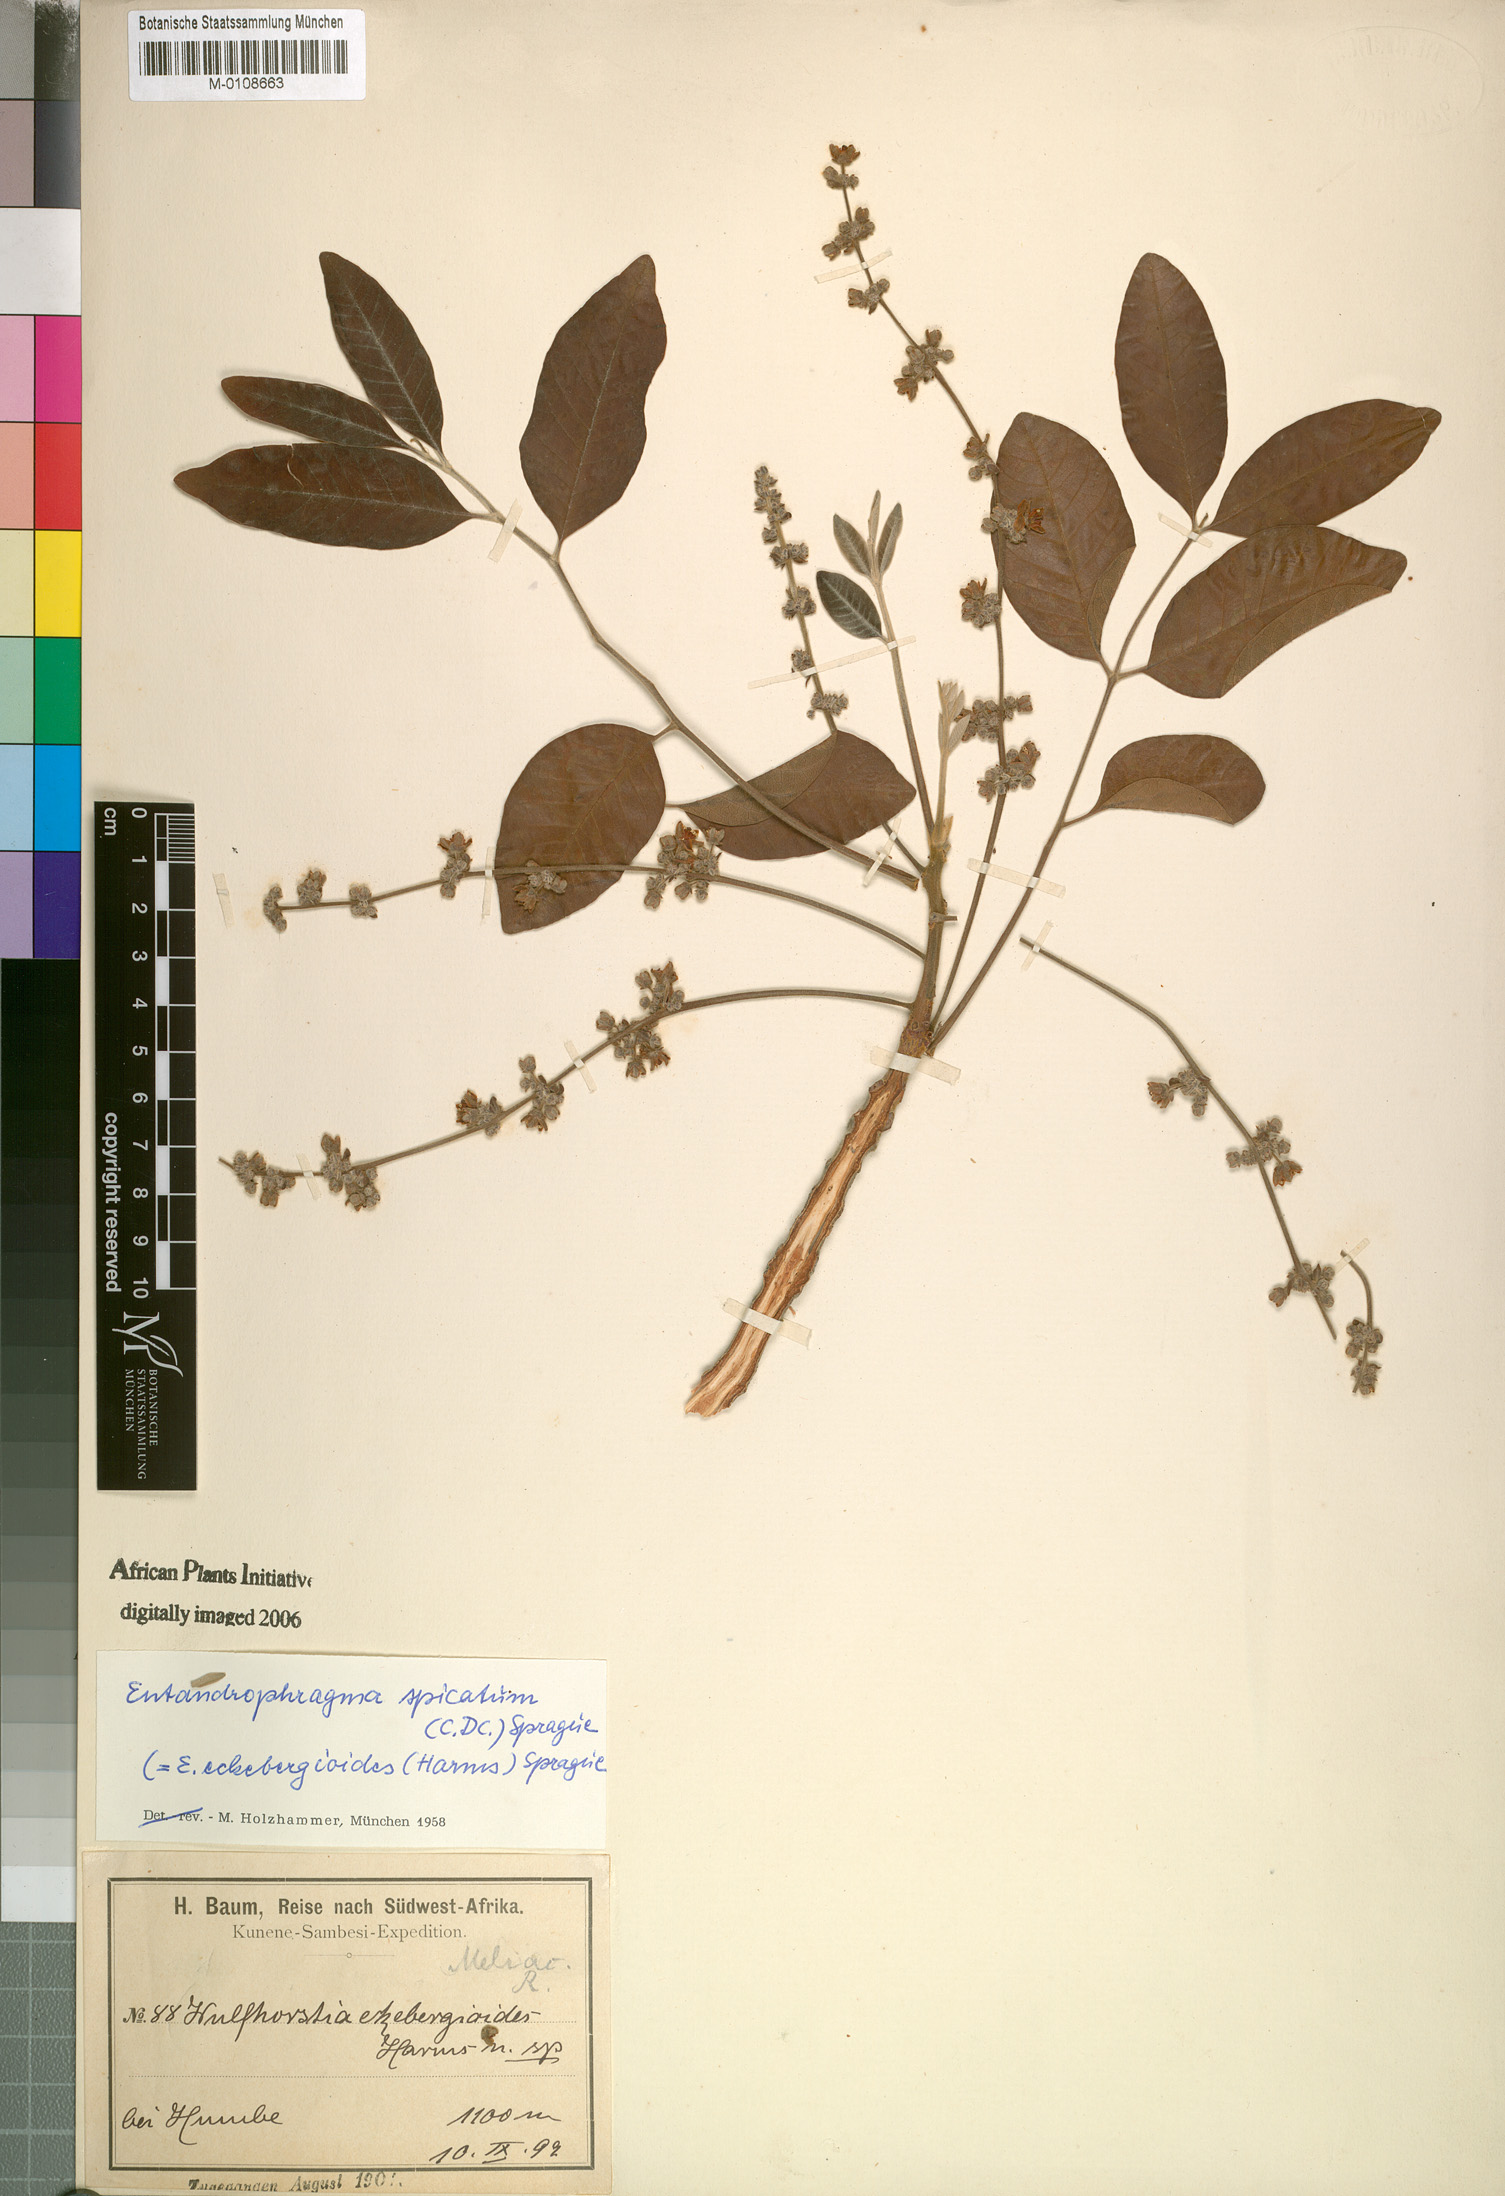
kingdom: Plantae
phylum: Tracheophyta
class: Magnoliopsida
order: Sapindales
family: Meliaceae
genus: Entandrophragma
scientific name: Entandrophragma spicatum
